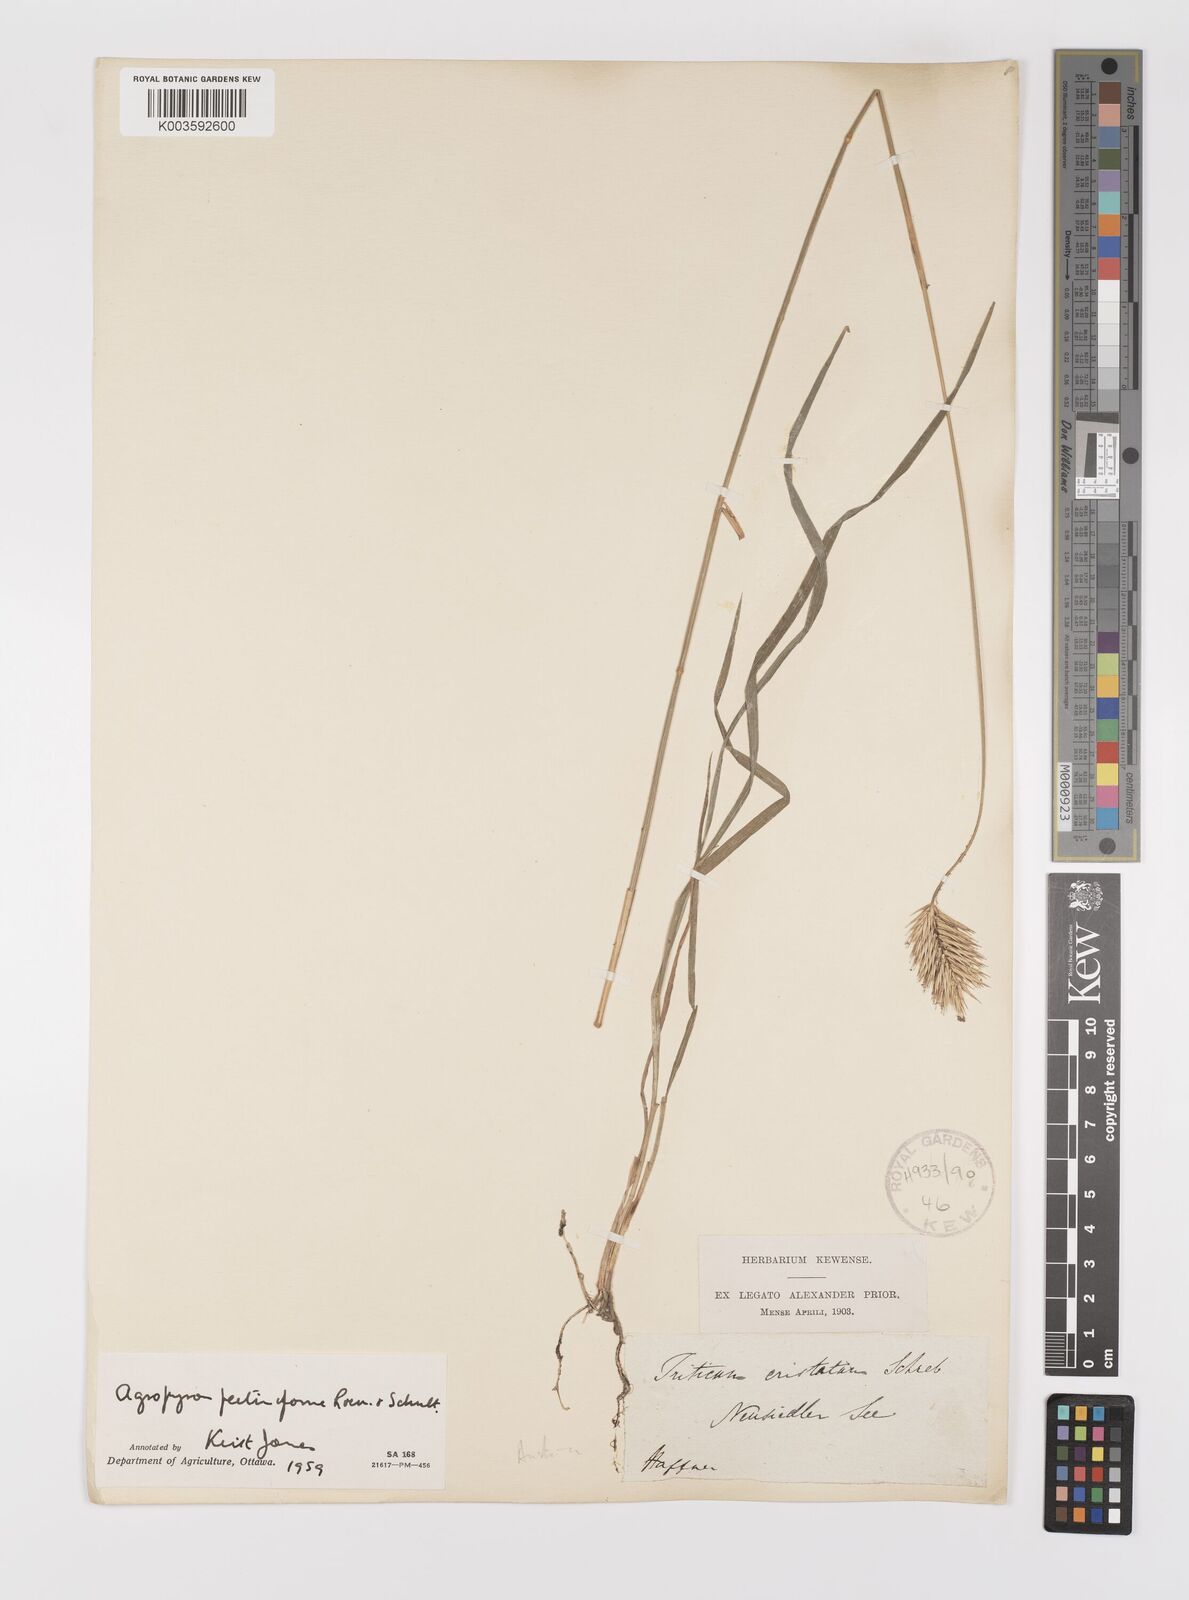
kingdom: Plantae
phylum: Tracheophyta
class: Liliopsida
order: Poales
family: Poaceae
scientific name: Poaceae
